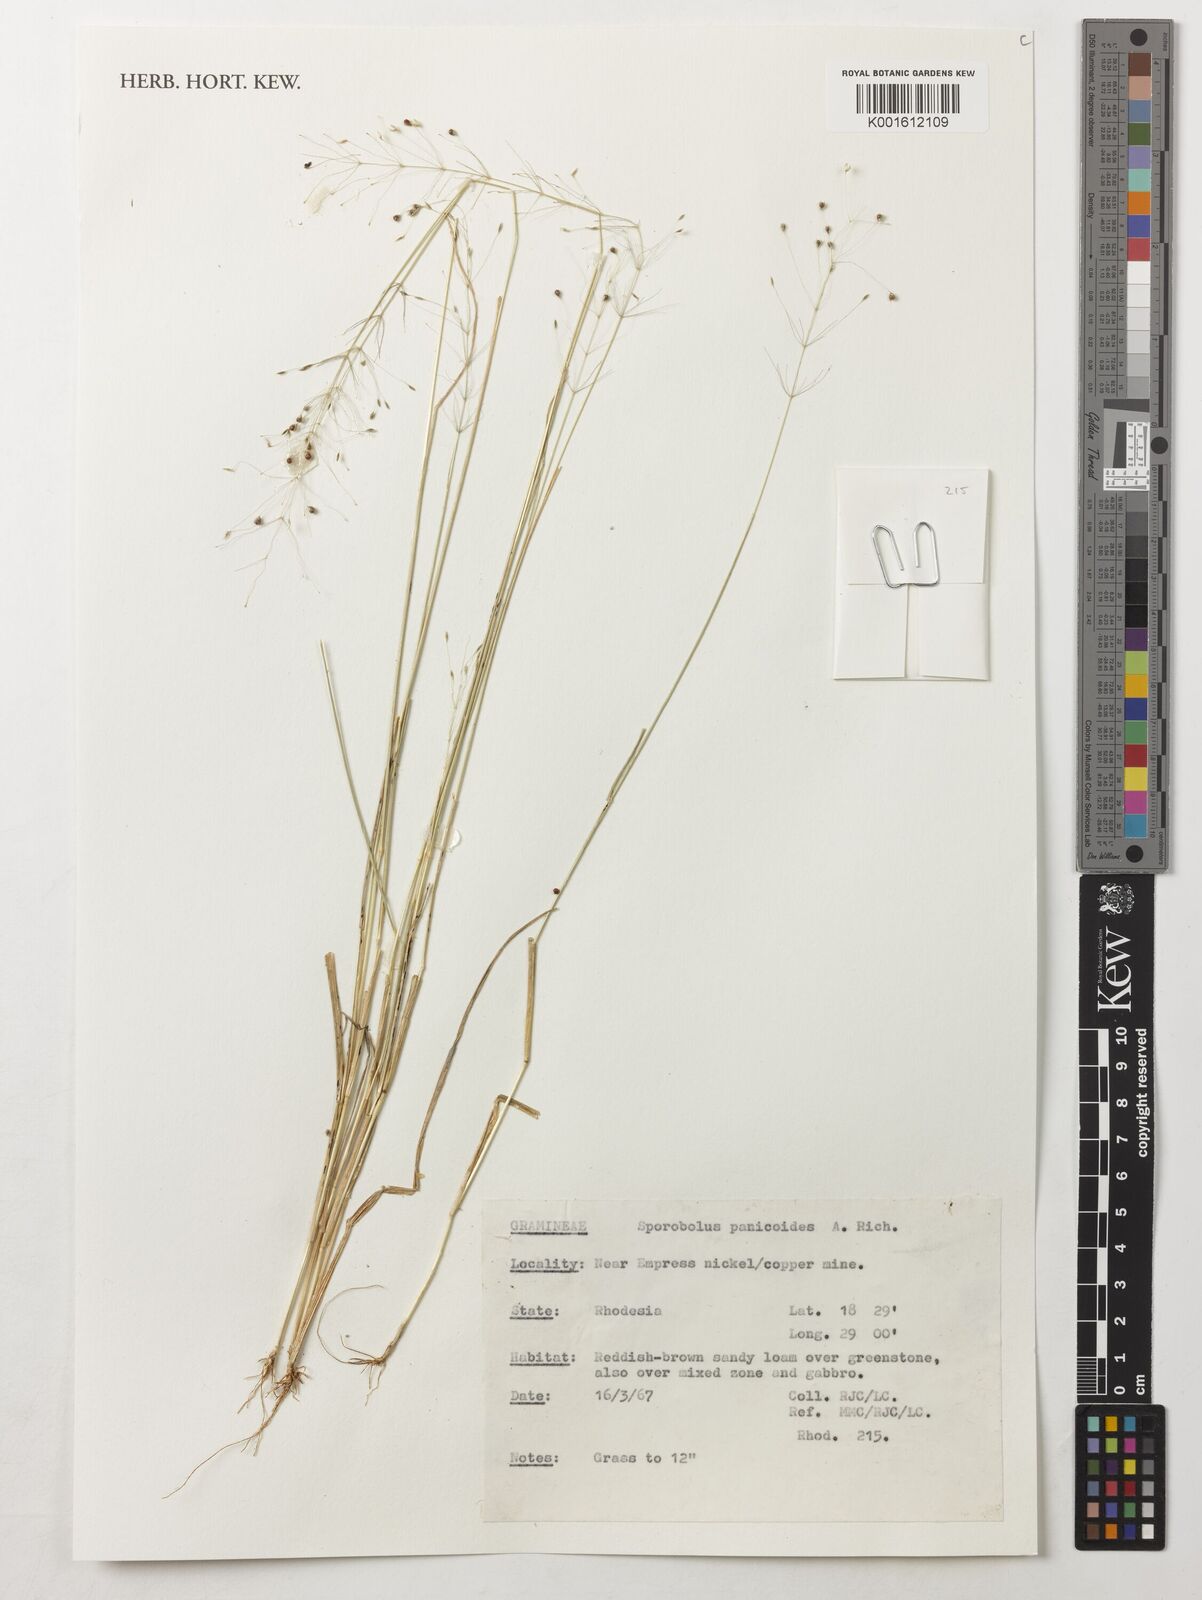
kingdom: Plantae
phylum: Tracheophyta
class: Liliopsida
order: Poales
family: Poaceae
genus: Sporobolus
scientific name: Sporobolus panicoides
